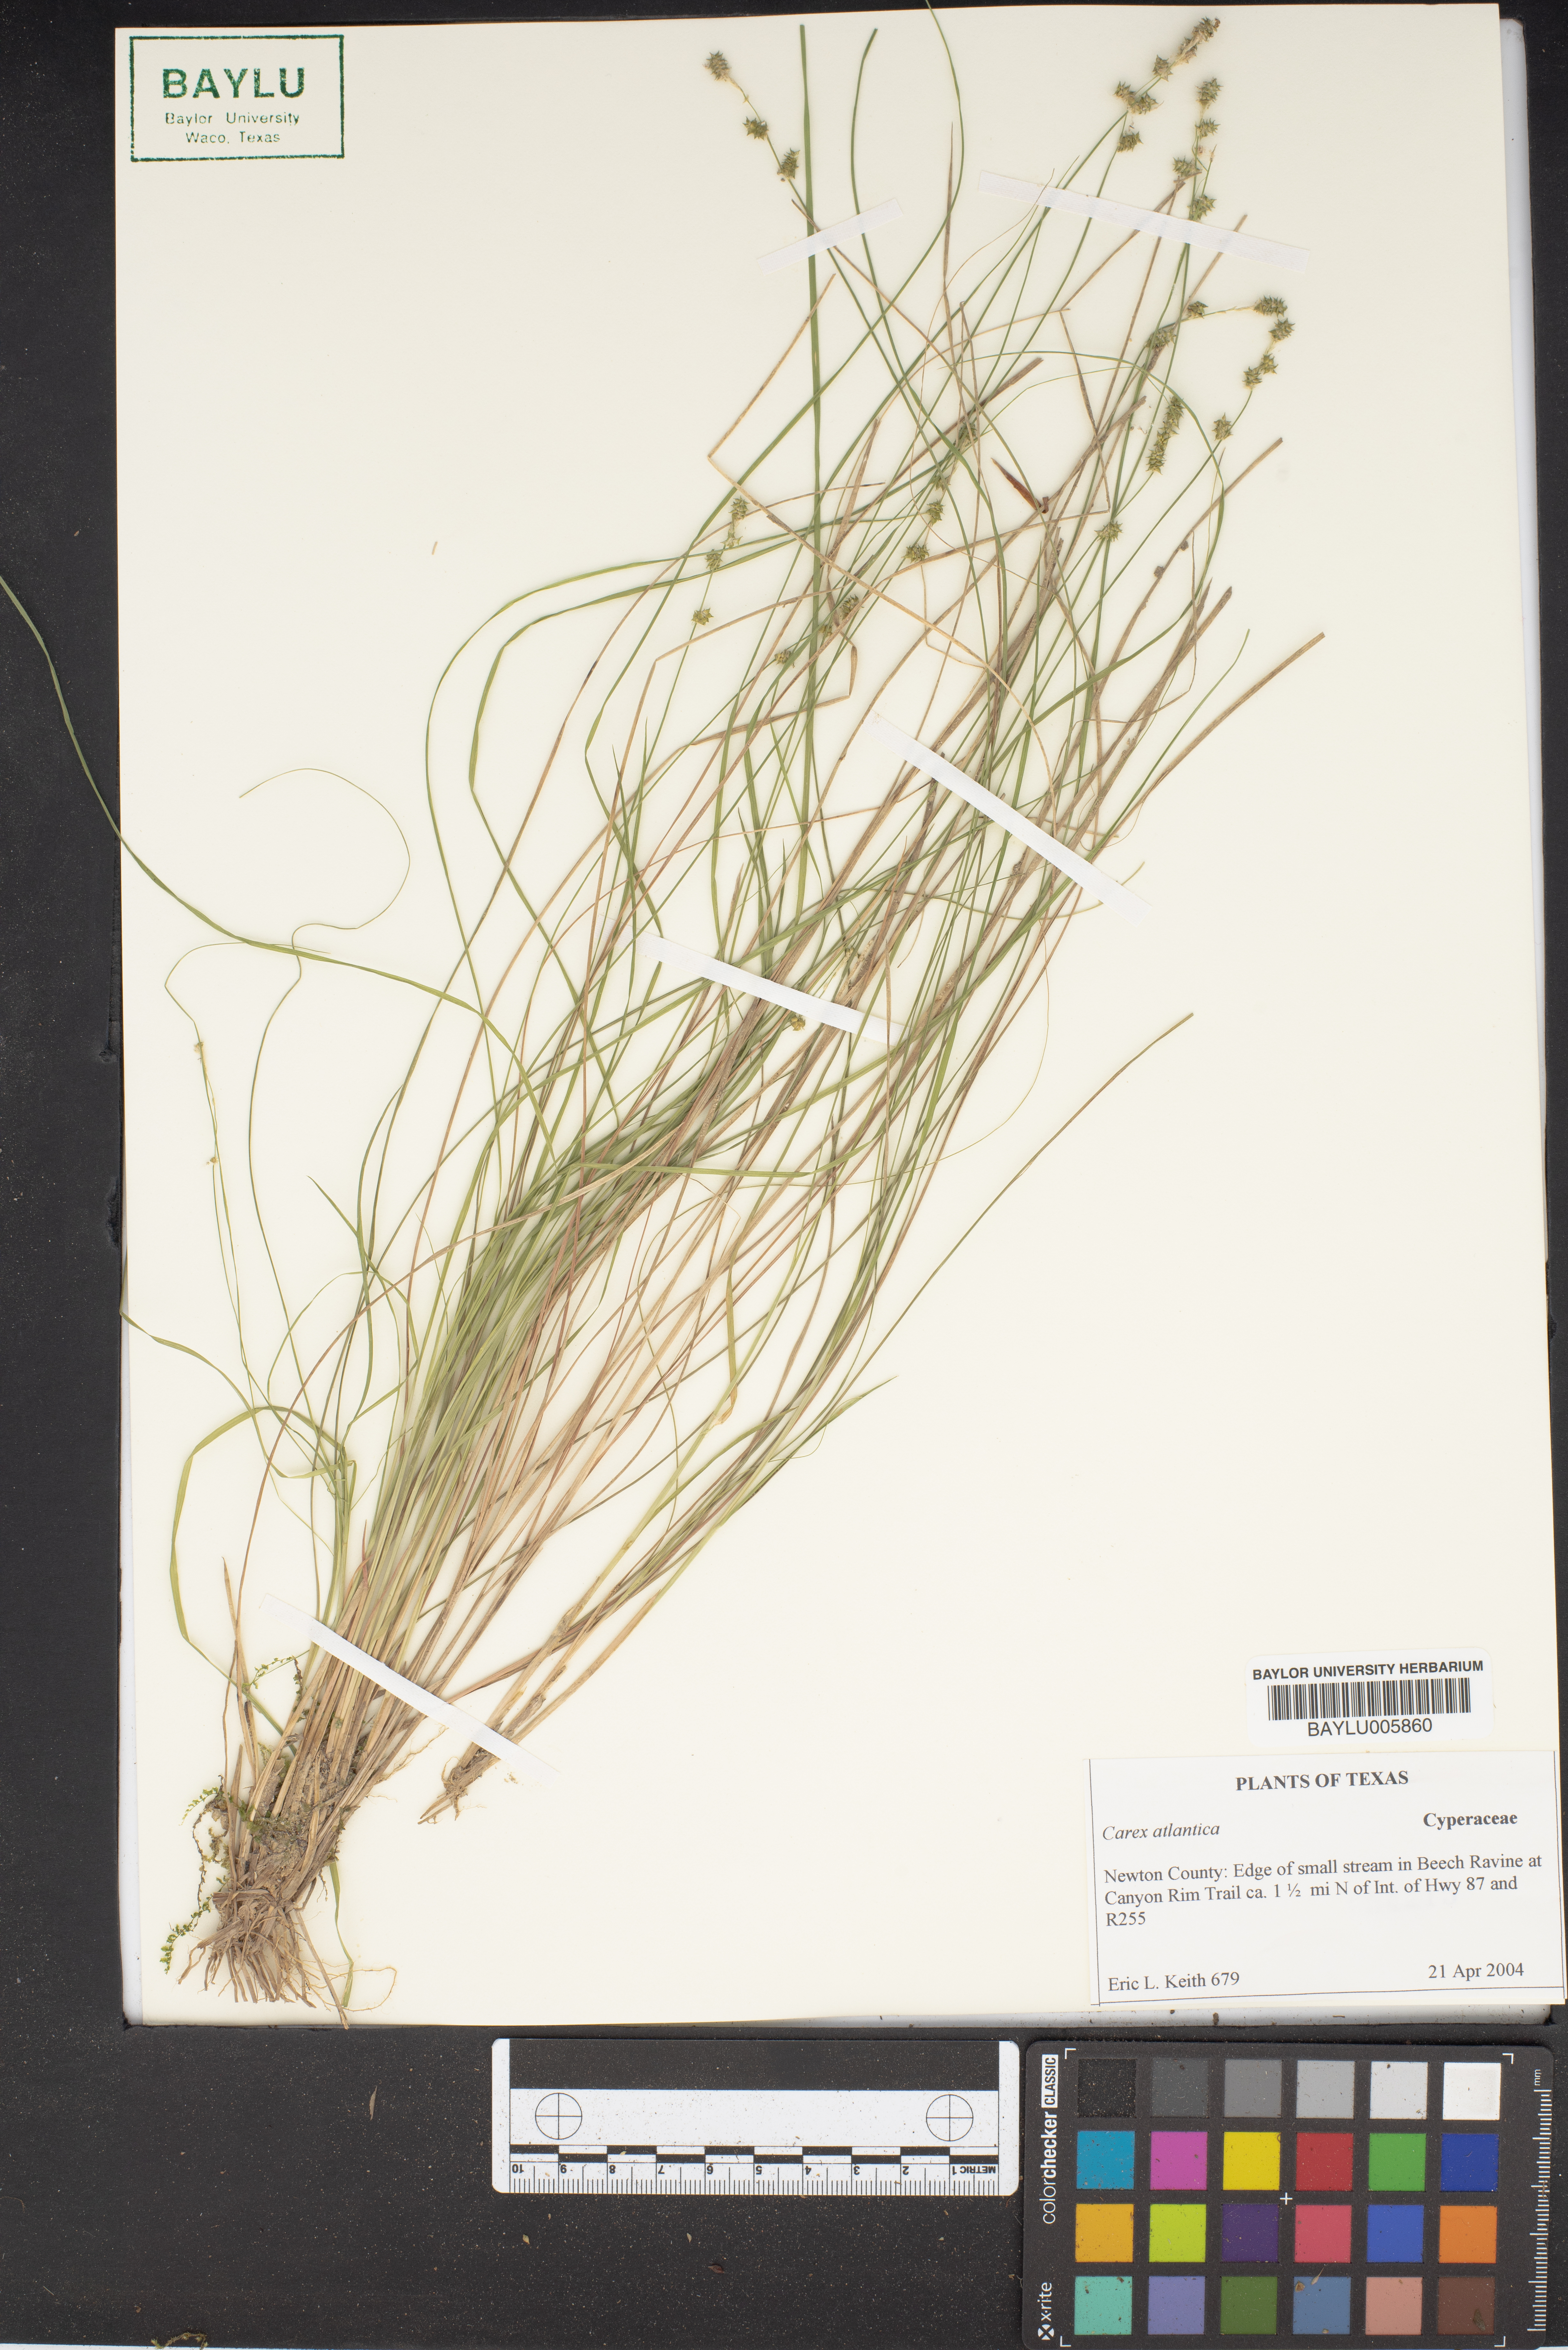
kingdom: Plantae
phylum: Tracheophyta
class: Liliopsida
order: Poales
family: Cyperaceae
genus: Carex
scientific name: Carex atlantica
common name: Atlantic sedge
